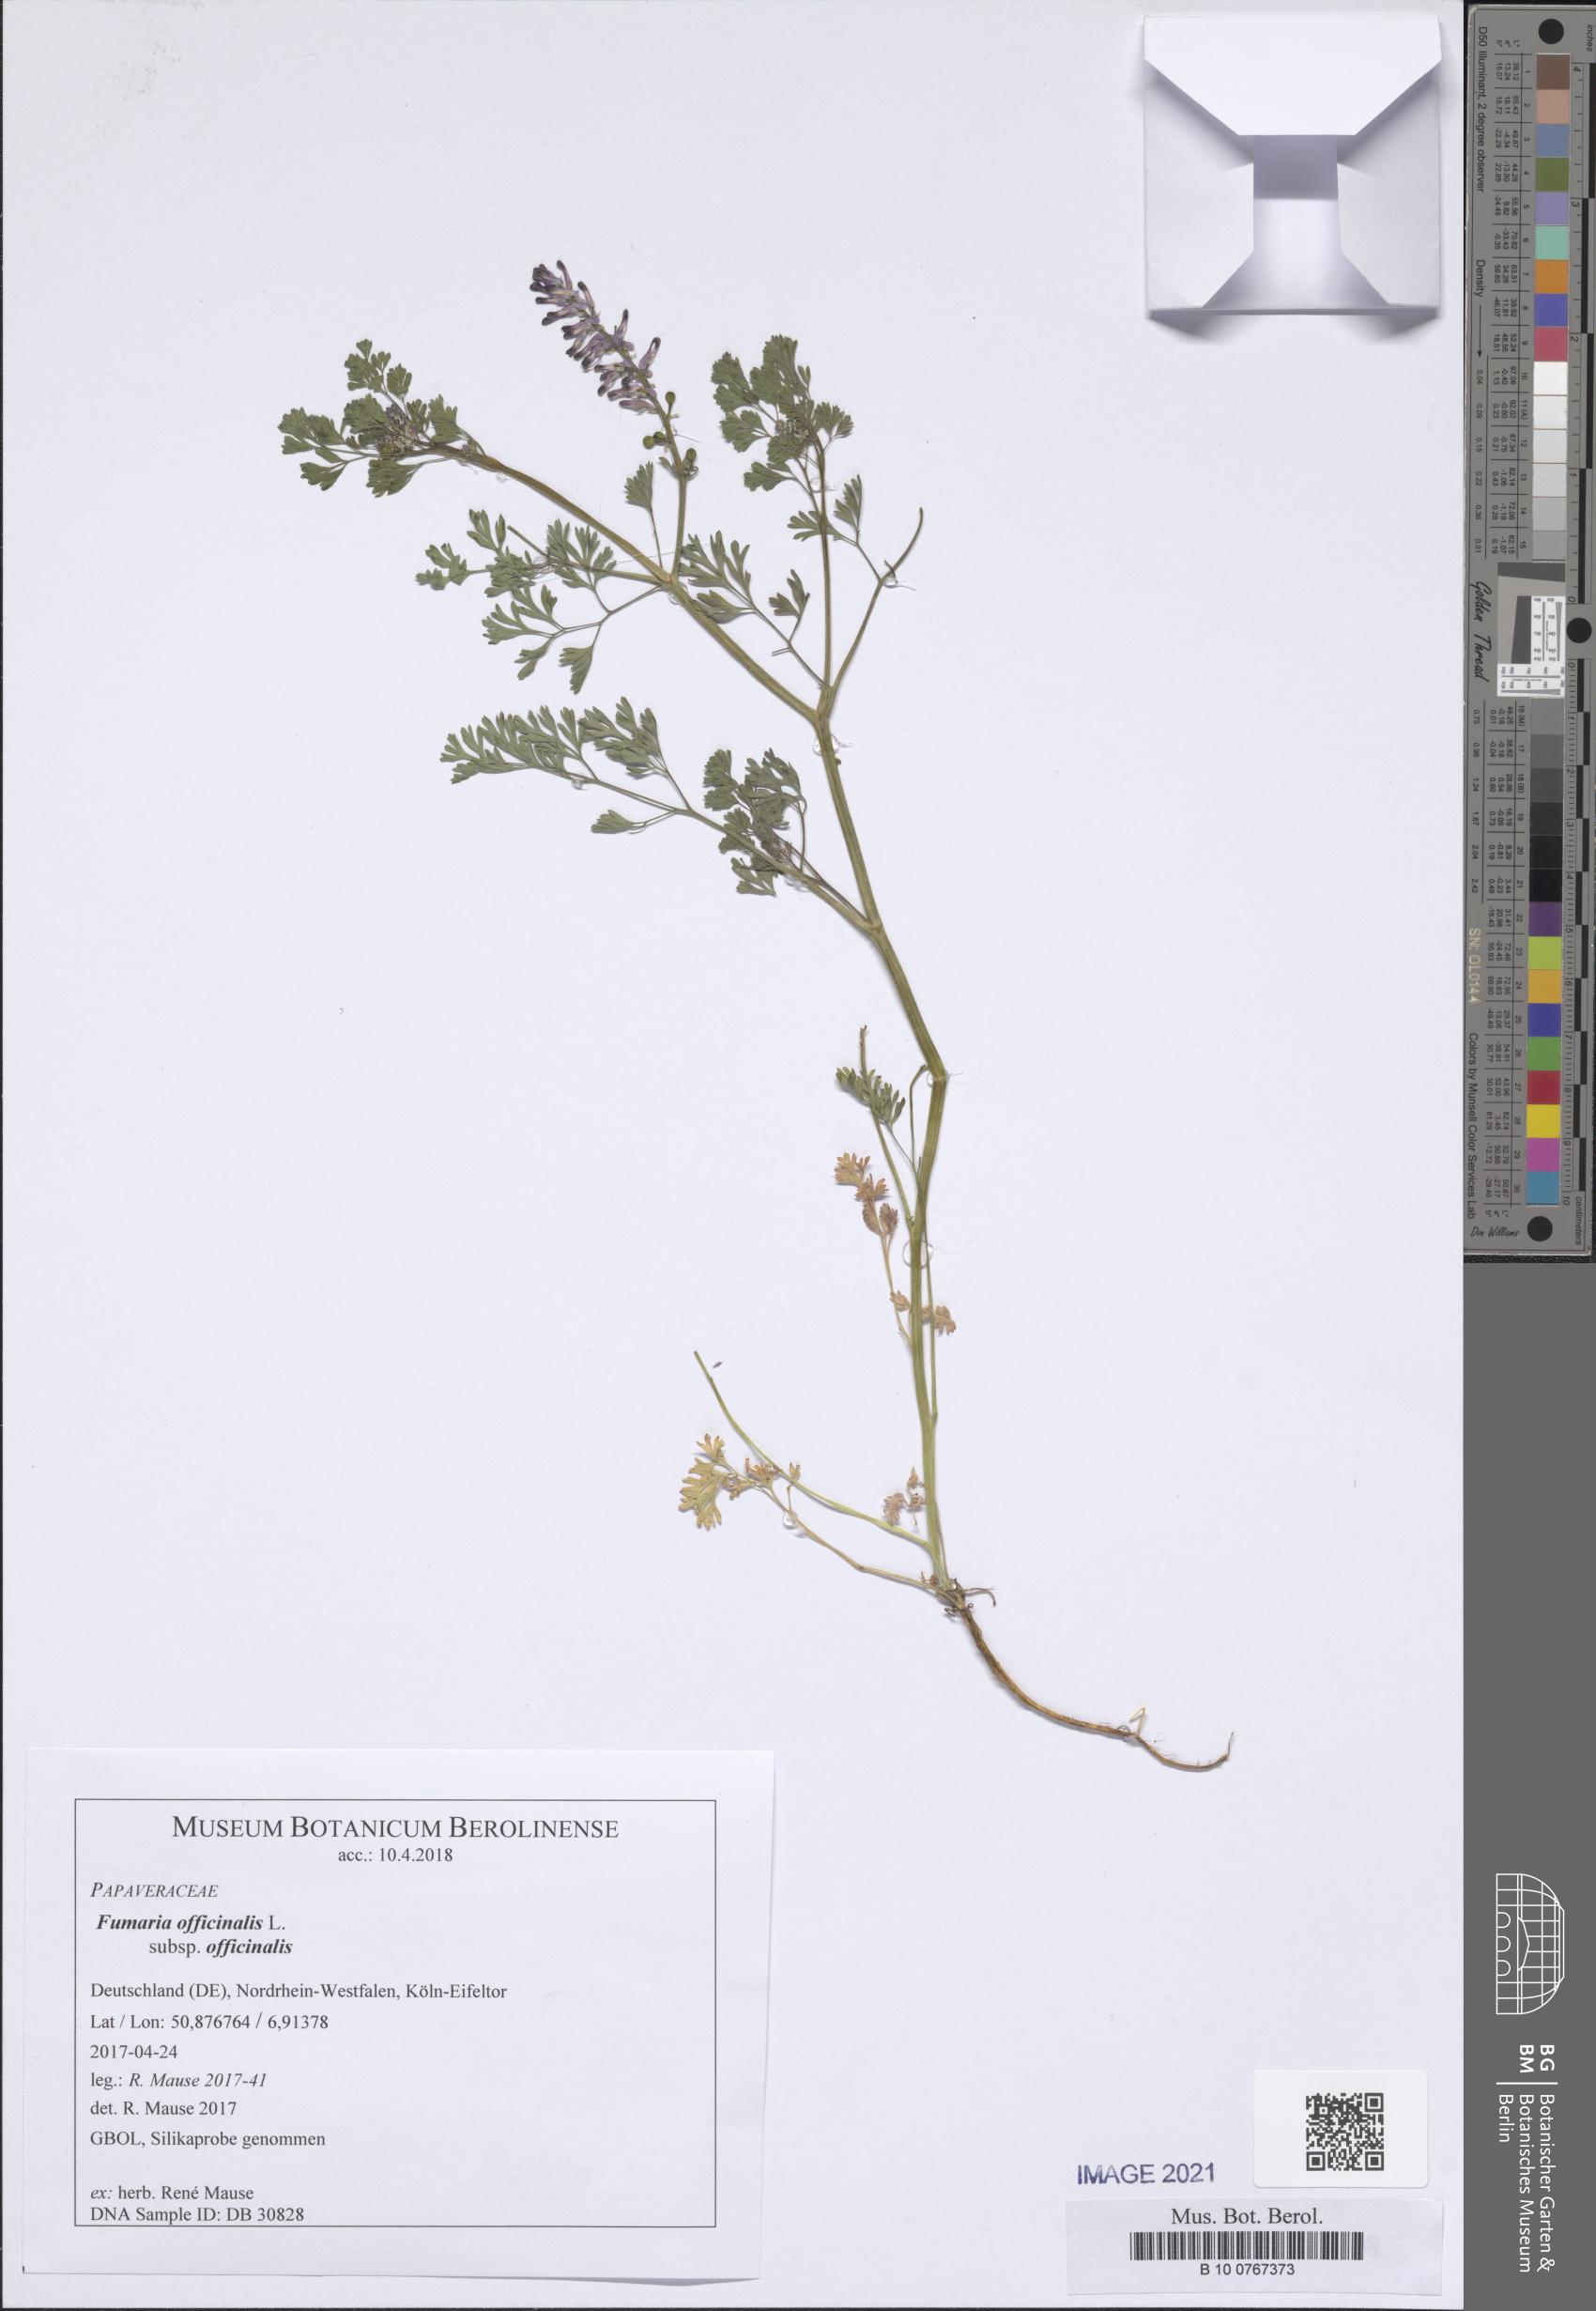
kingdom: Plantae
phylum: Tracheophyta
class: Magnoliopsida
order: Ranunculales
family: Papaveraceae
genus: Fumaria
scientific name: Fumaria officinalis
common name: Common fumitory
